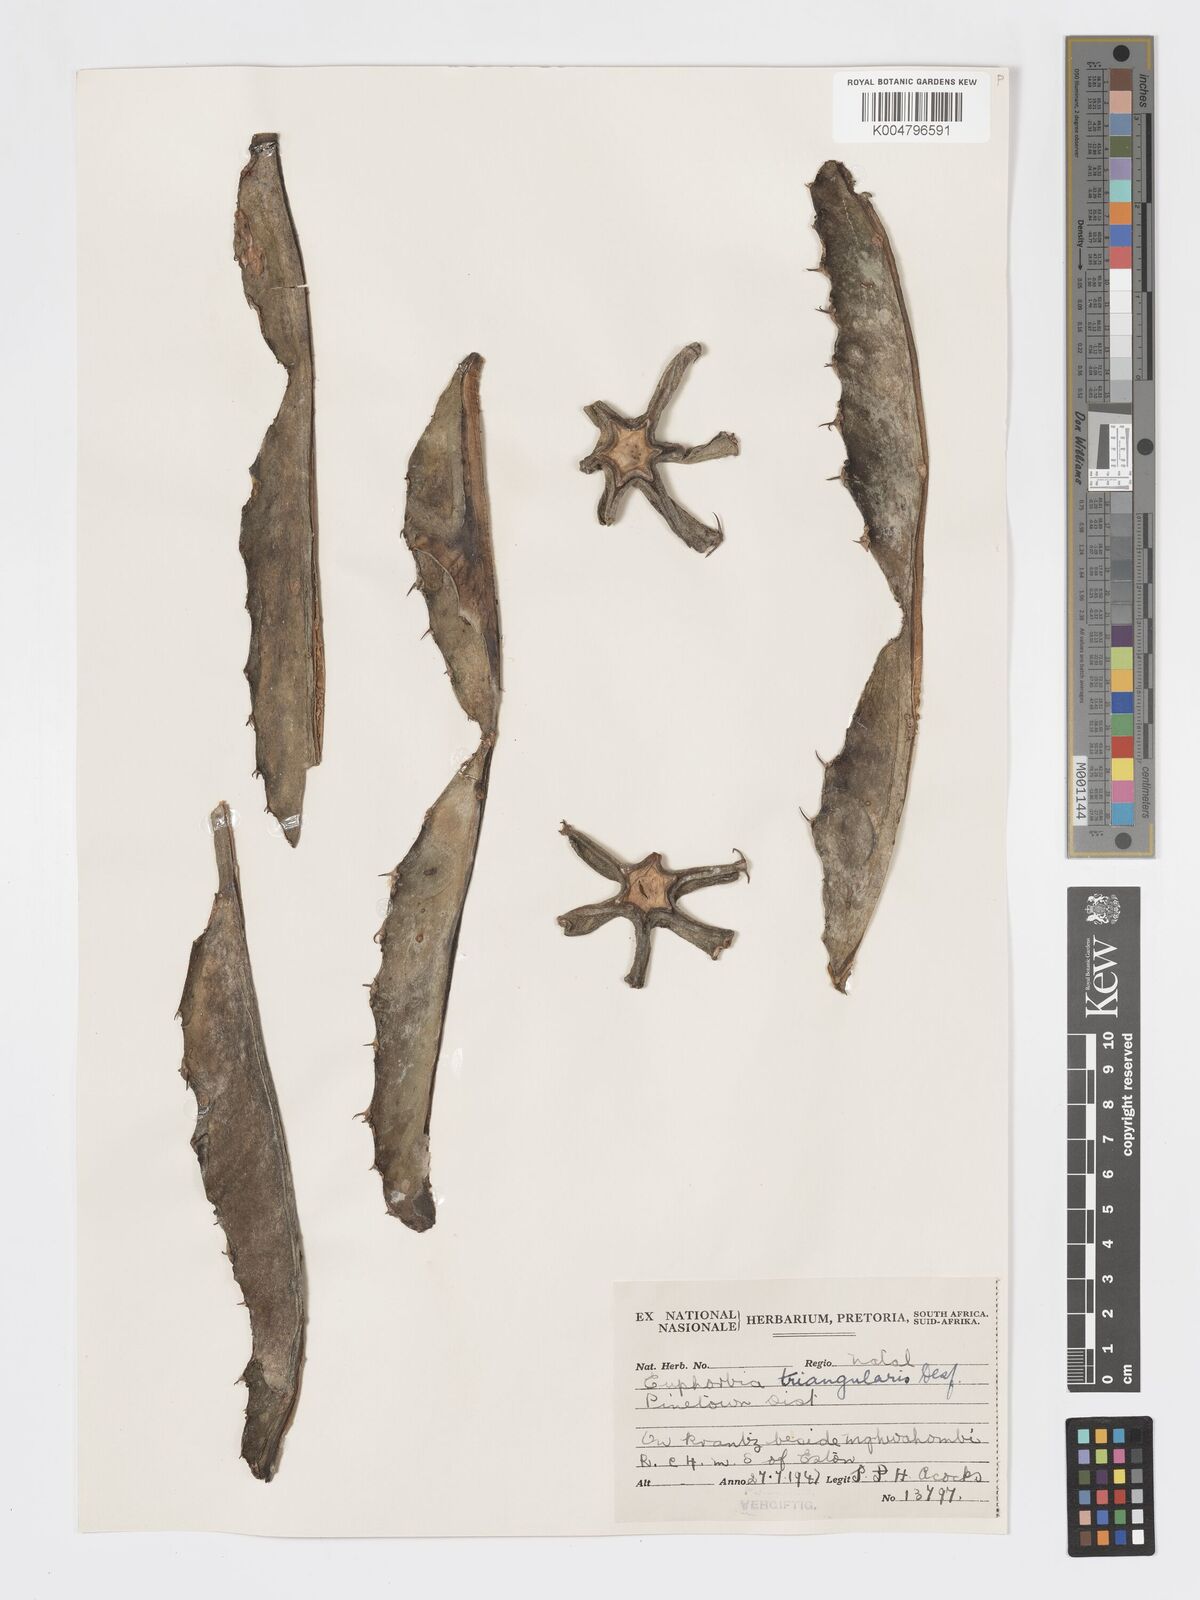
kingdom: Plantae
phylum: Tracheophyta
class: Magnoliopsida
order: Malpighiales
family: Euphorbiaceae
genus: Euphorbia
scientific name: Euphorbia triangularis
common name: Chandelier tree
